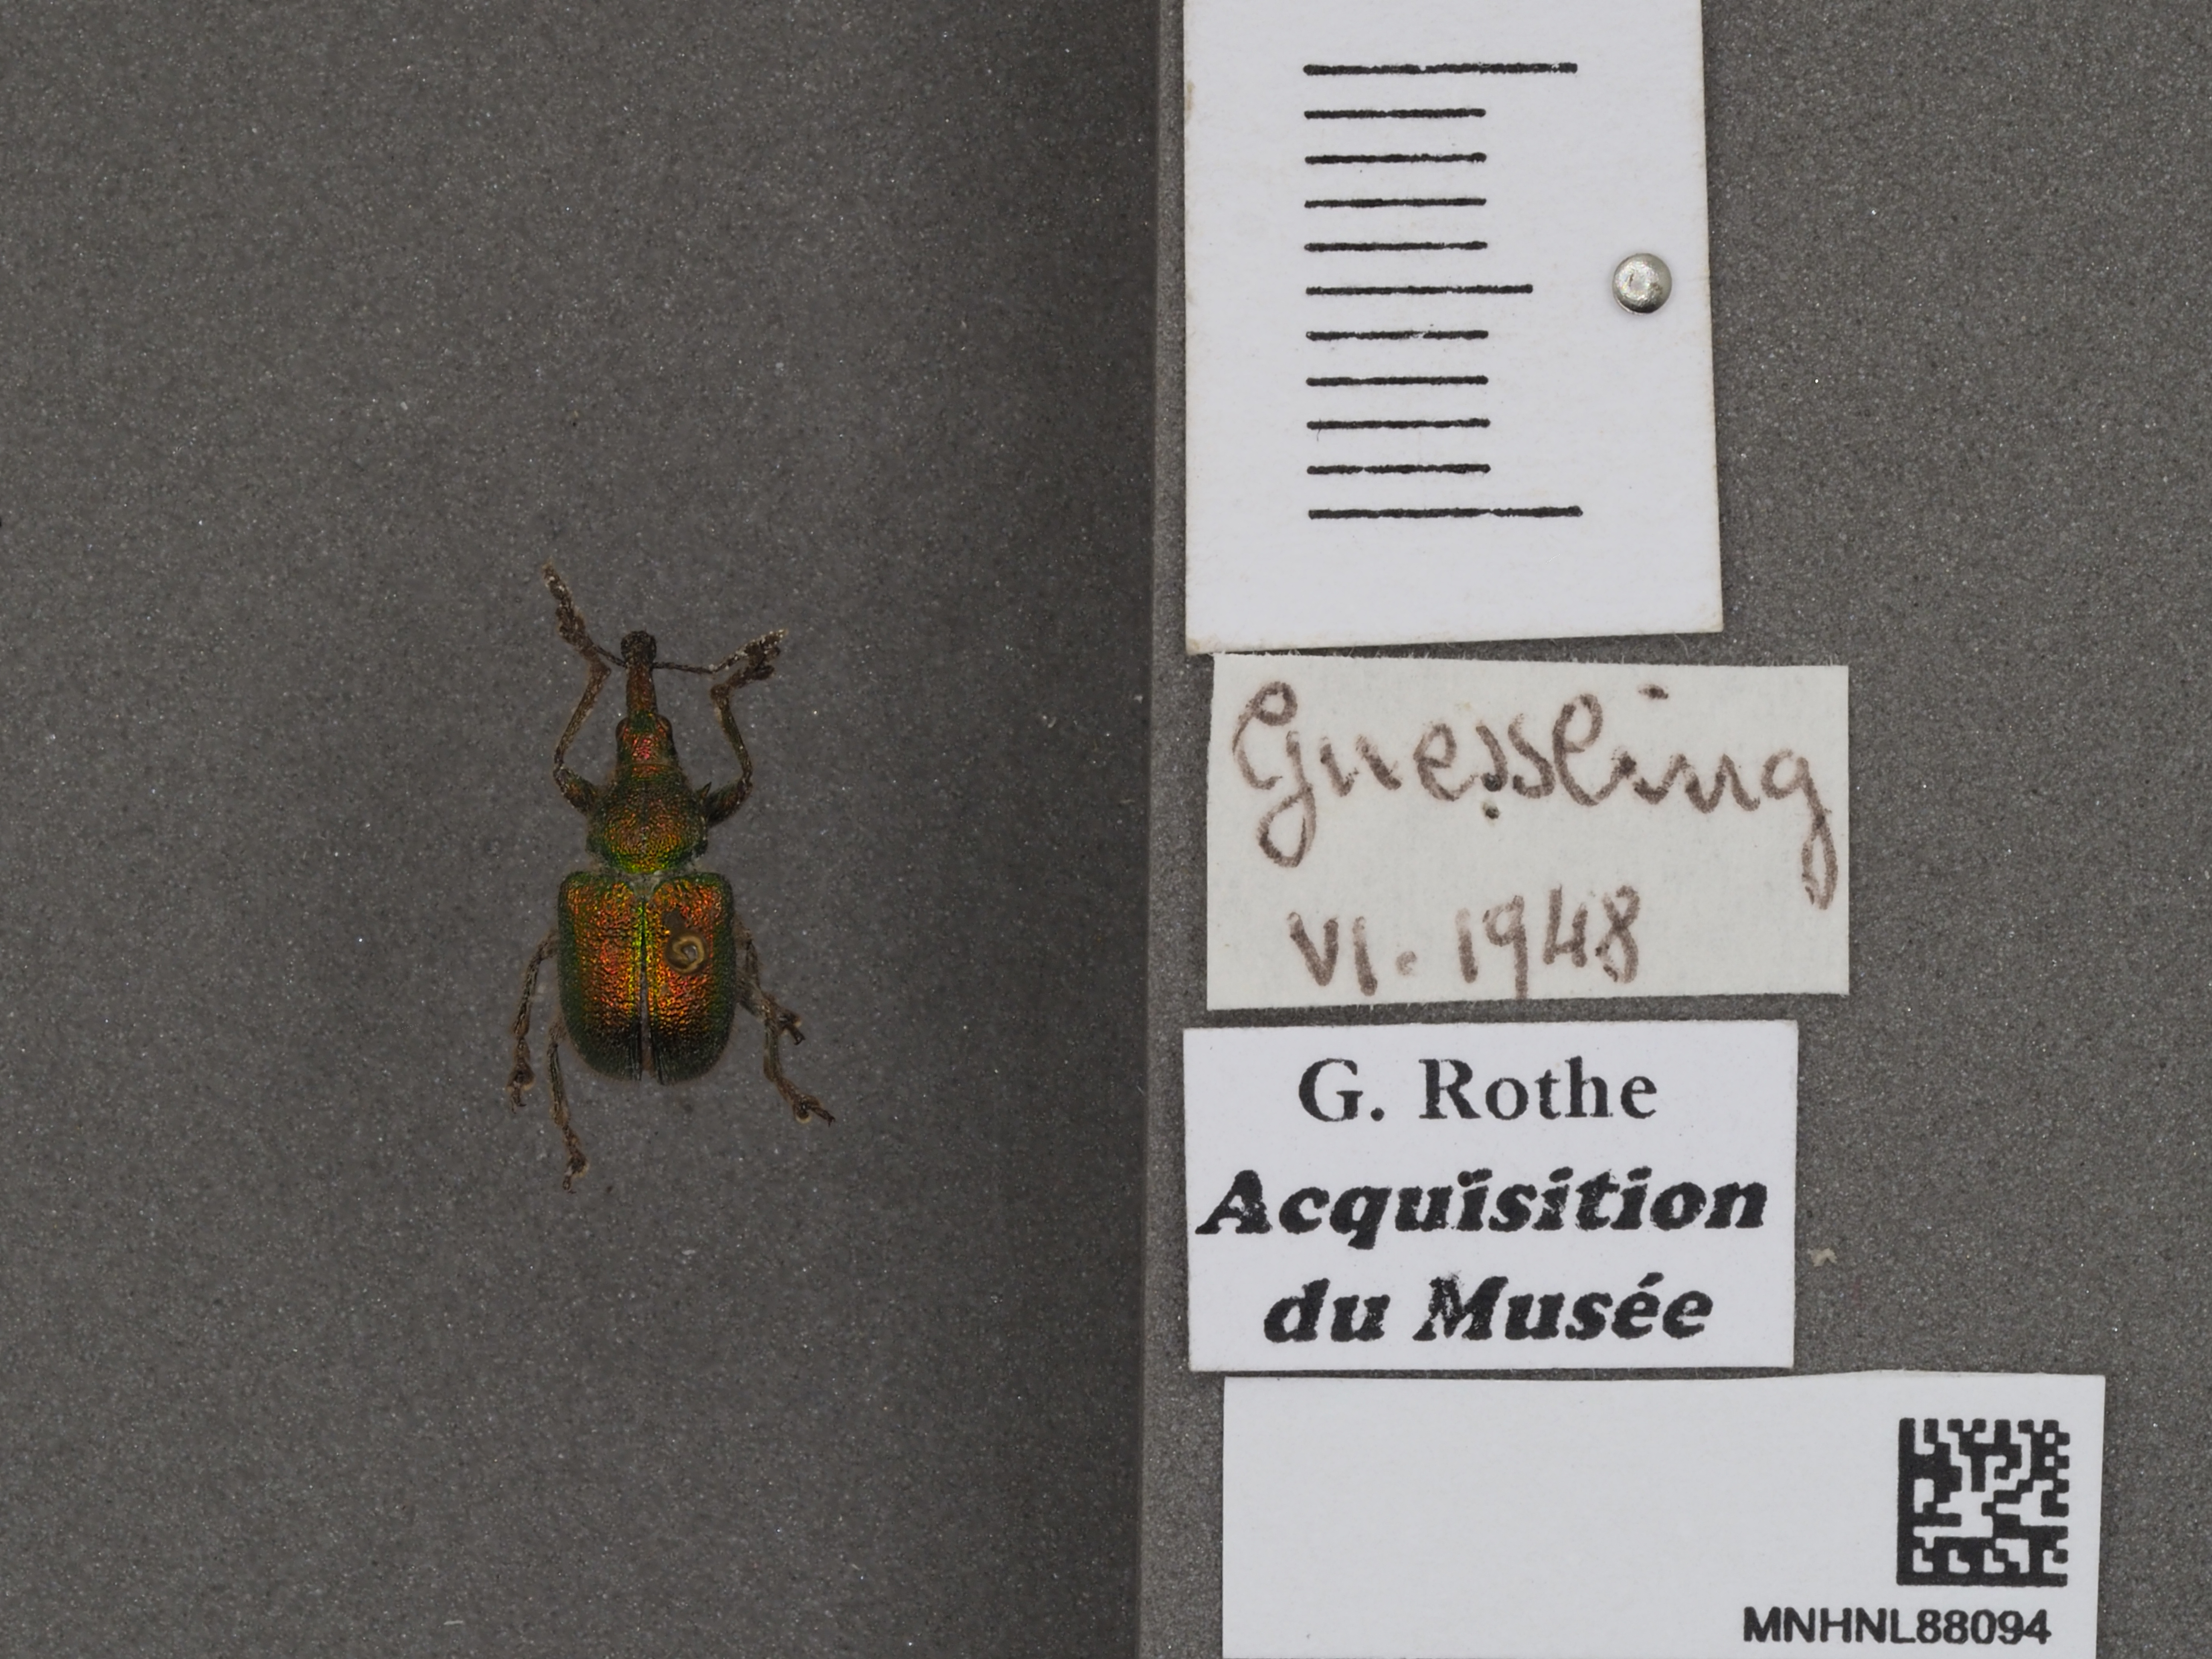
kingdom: Animalia
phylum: Arthropoda
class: Insecta
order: Coleoptera
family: Attelabidae
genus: Byctiscus
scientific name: Byctiscus betulae
